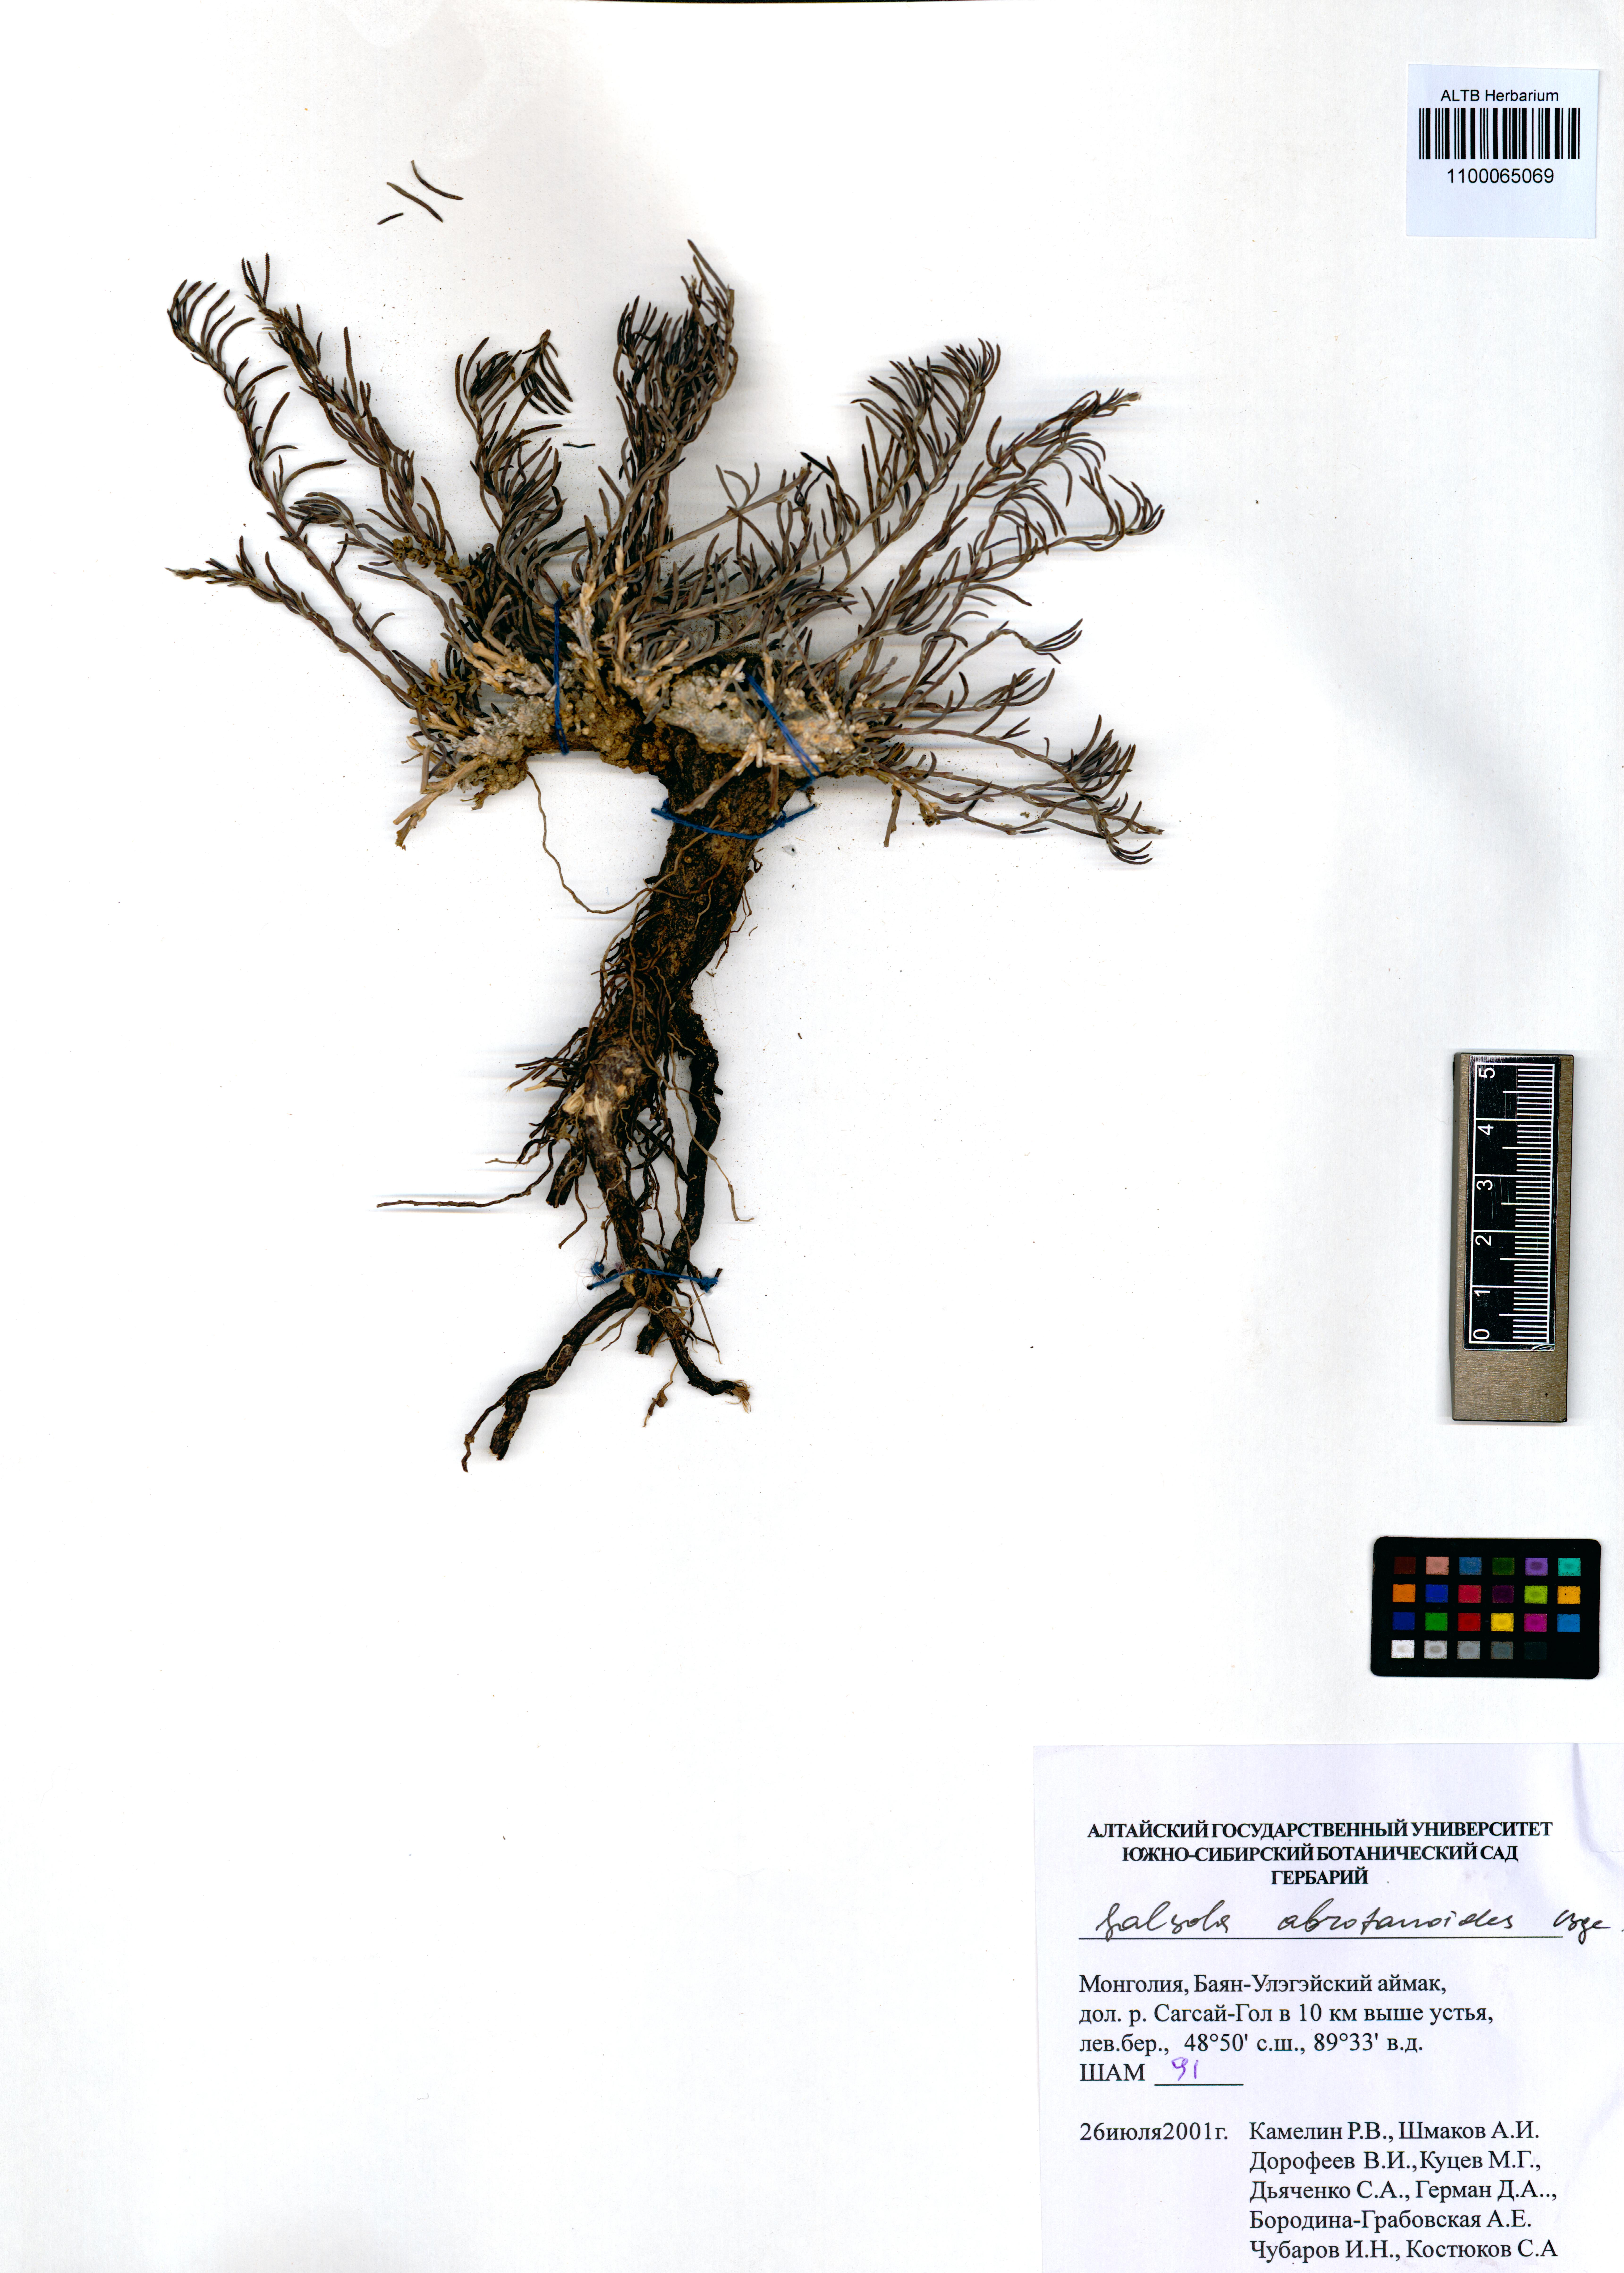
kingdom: Plantae
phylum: Tracheophyta
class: Magnoliopsida
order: Caryophyllales
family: Amaranthaceae
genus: Oreosalsola
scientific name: Oreosalsola abrotanoides
